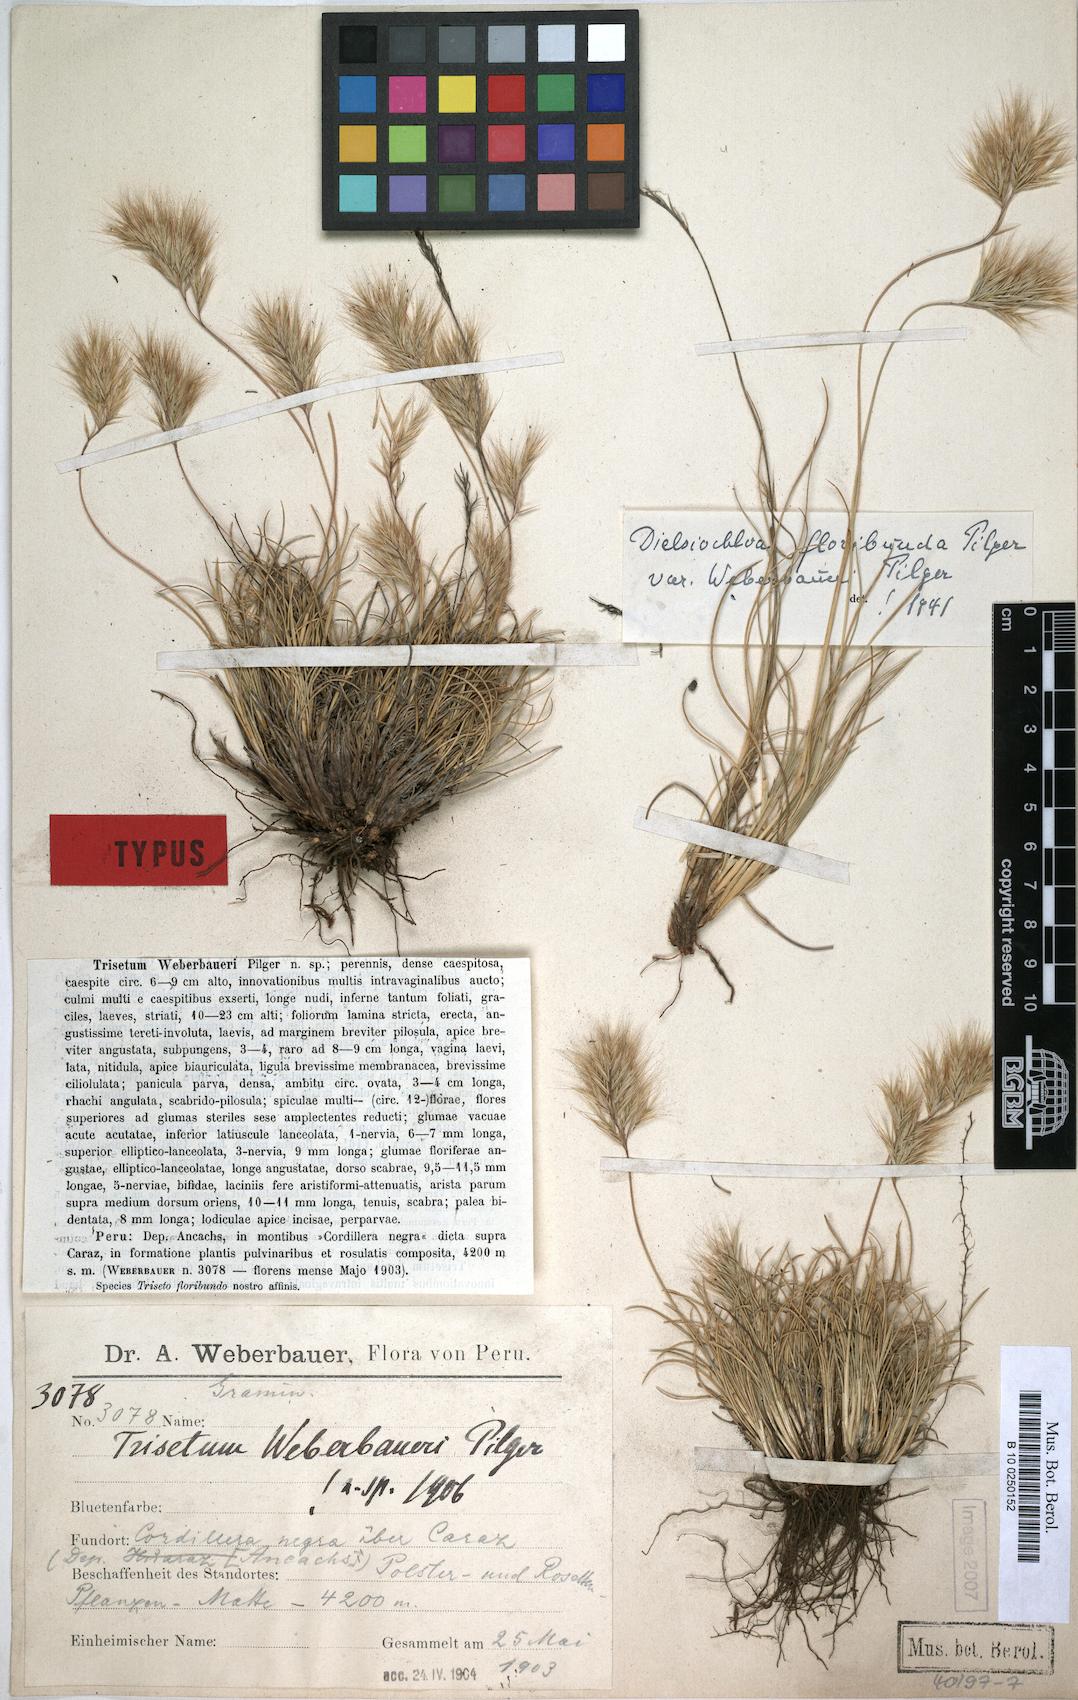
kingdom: Plantae
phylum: Tracheophyta
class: Liliopsida
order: Poales
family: Poaceae
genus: Festuca
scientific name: Festuca floribunda
